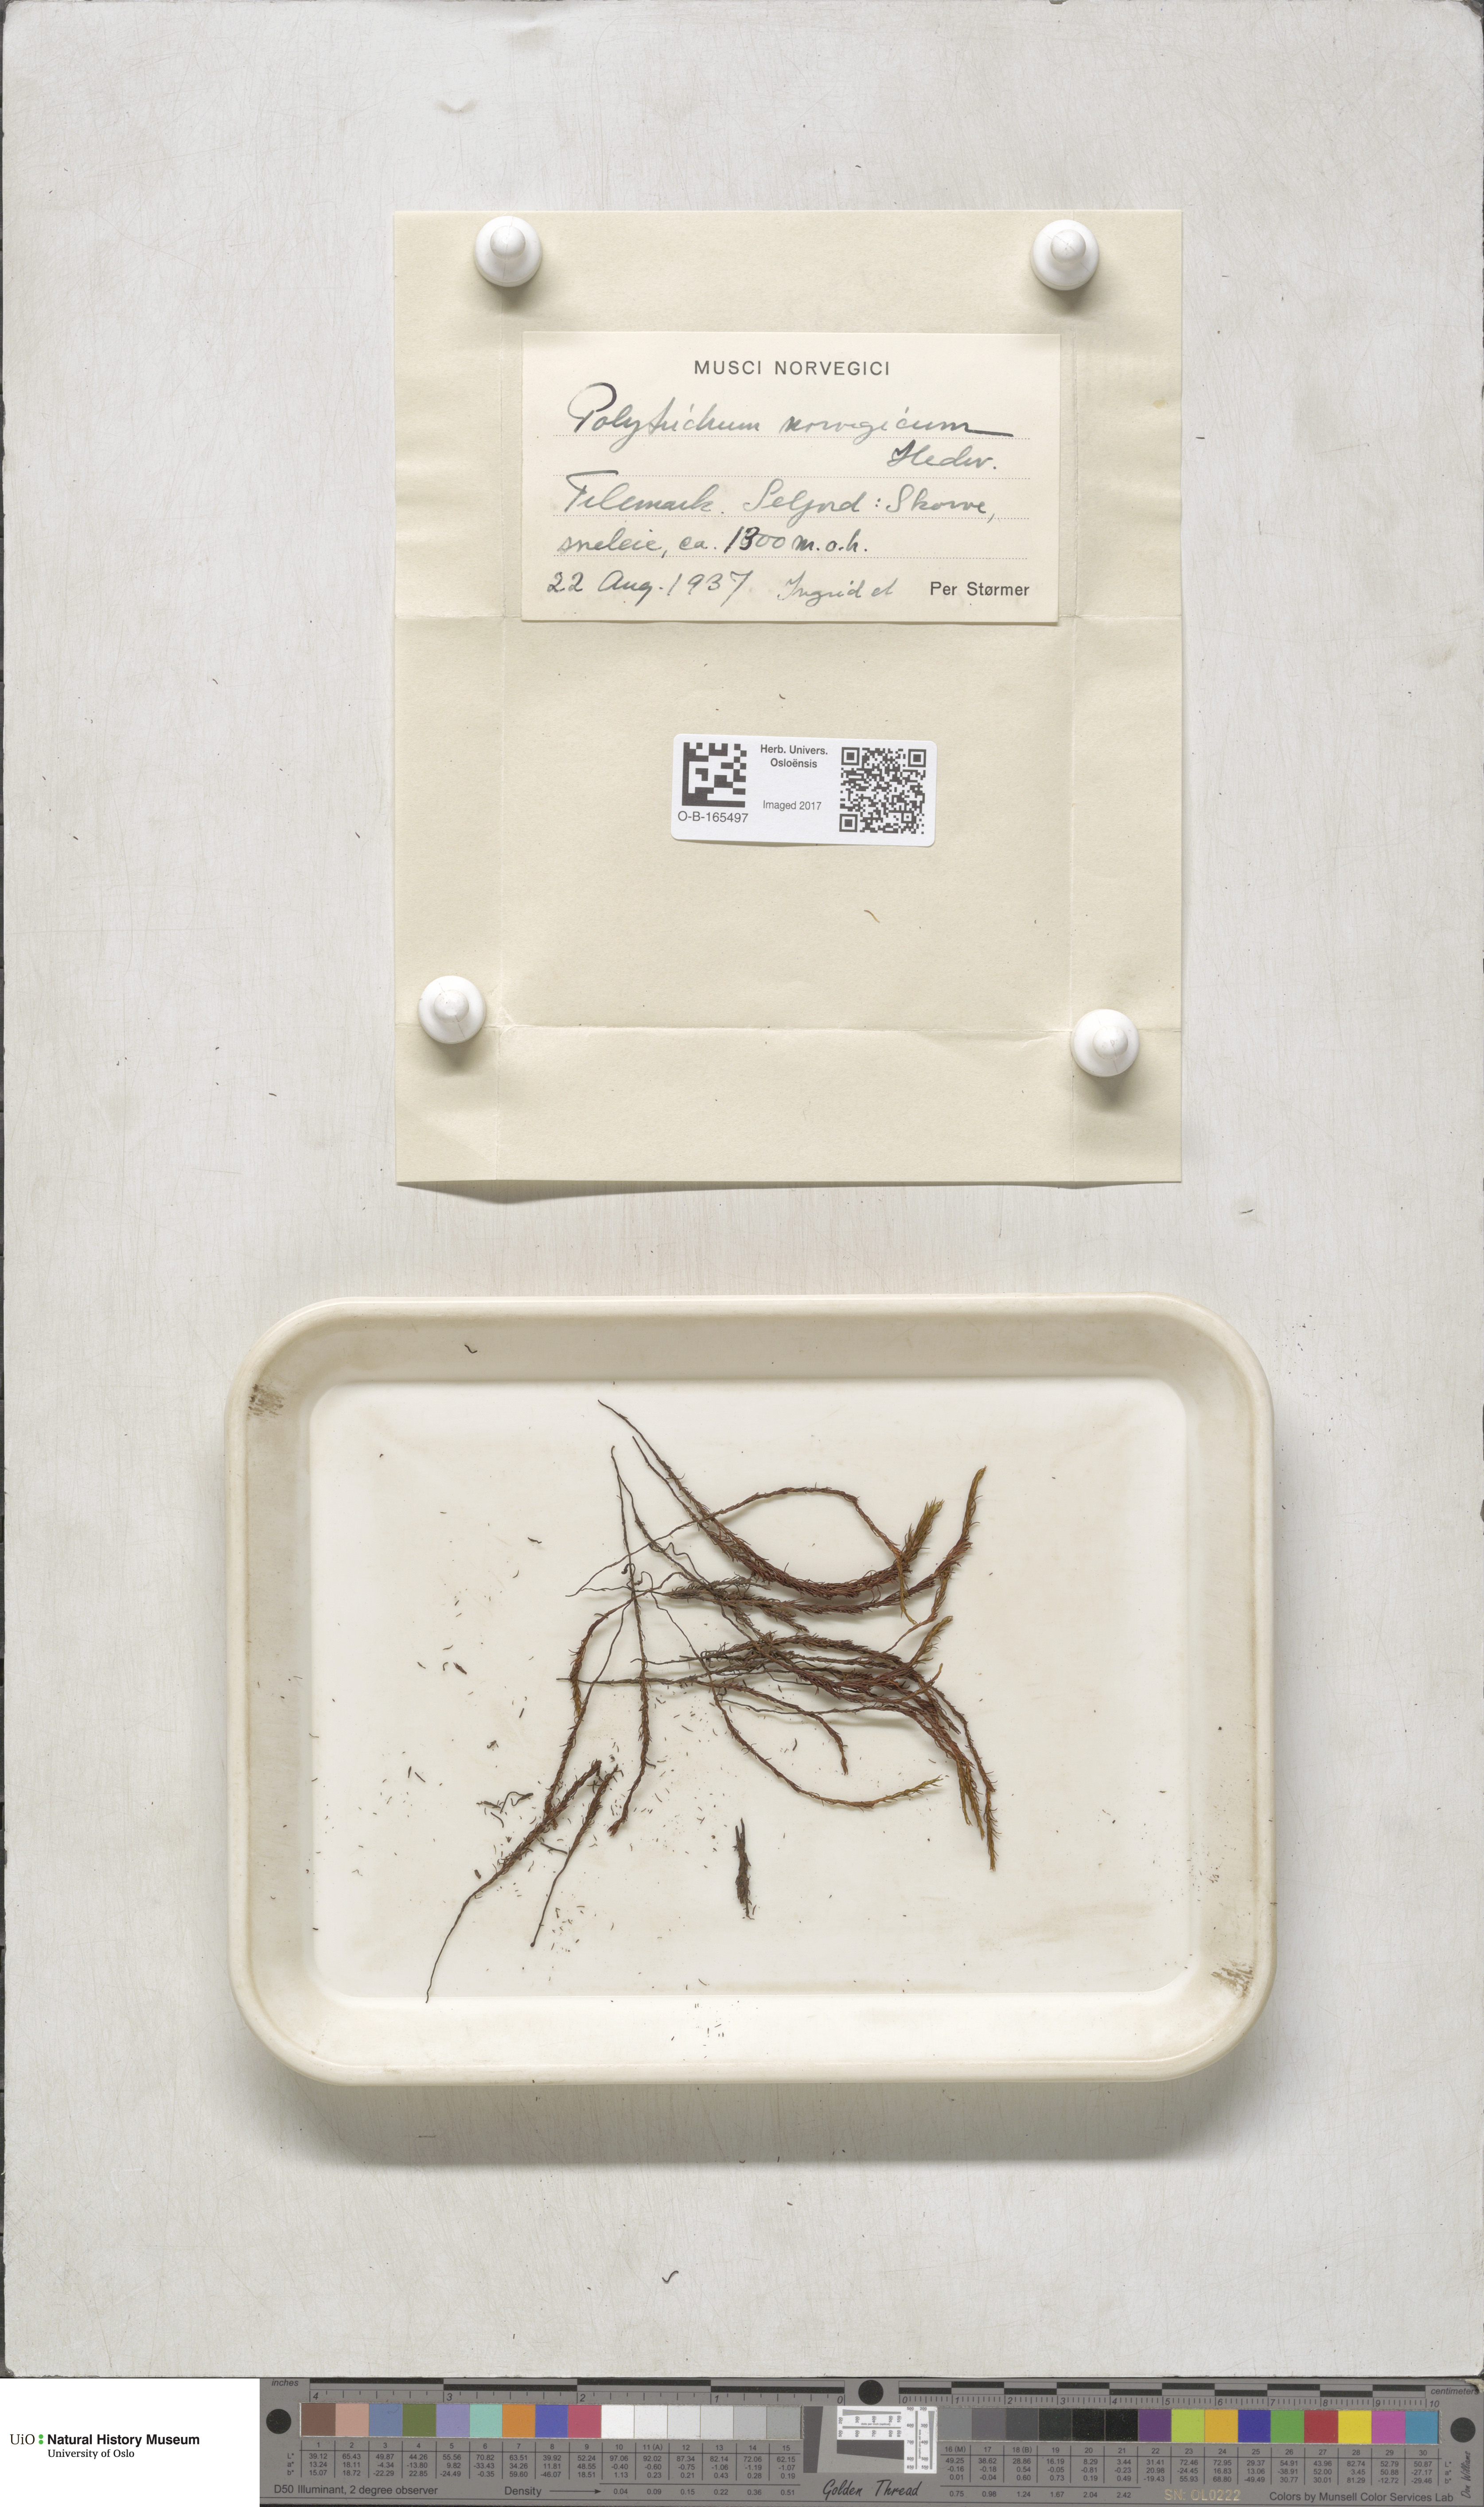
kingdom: Plantae
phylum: Bryophyta
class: Polytrichopsida
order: Polytrichales
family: Polytrichaceae
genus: Polytrichastrum
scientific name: Polytrichastrum sexangulare
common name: Northern haircap
